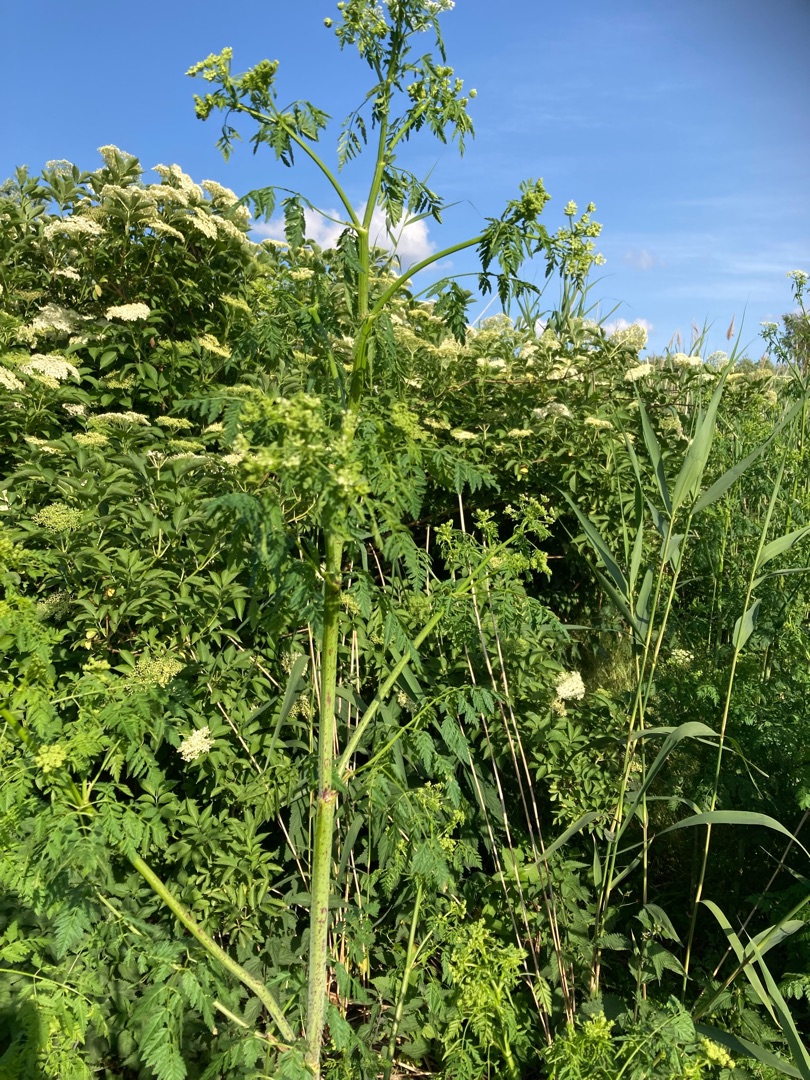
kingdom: Plantae
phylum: Tracheophyta
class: Magnoliopsida
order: Apiales
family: Apiaceae
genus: Conium
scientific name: Conium maculatum
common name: Skarntyde
